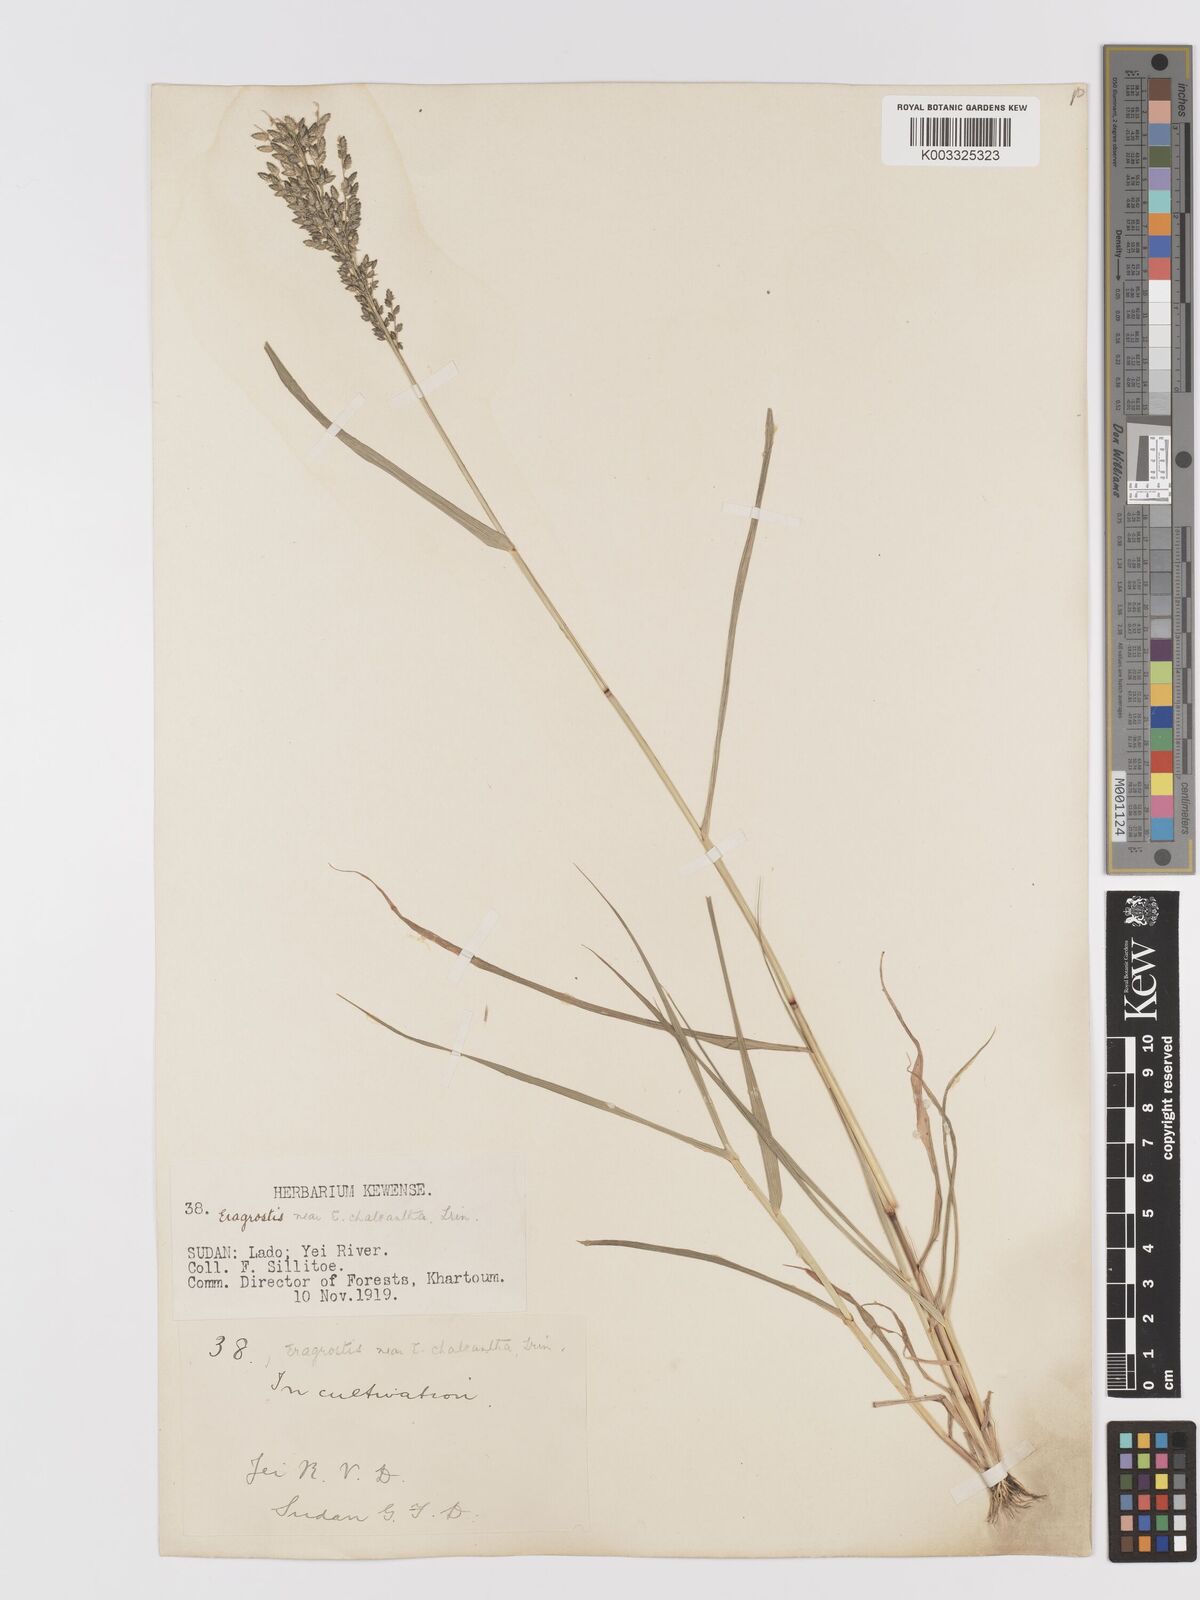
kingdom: Plantae
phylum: Tracheophyta
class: Liliopsida
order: Poales
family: Poaceae
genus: Eragrostis
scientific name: Eragrostis cilianensis
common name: Stinkgrass
